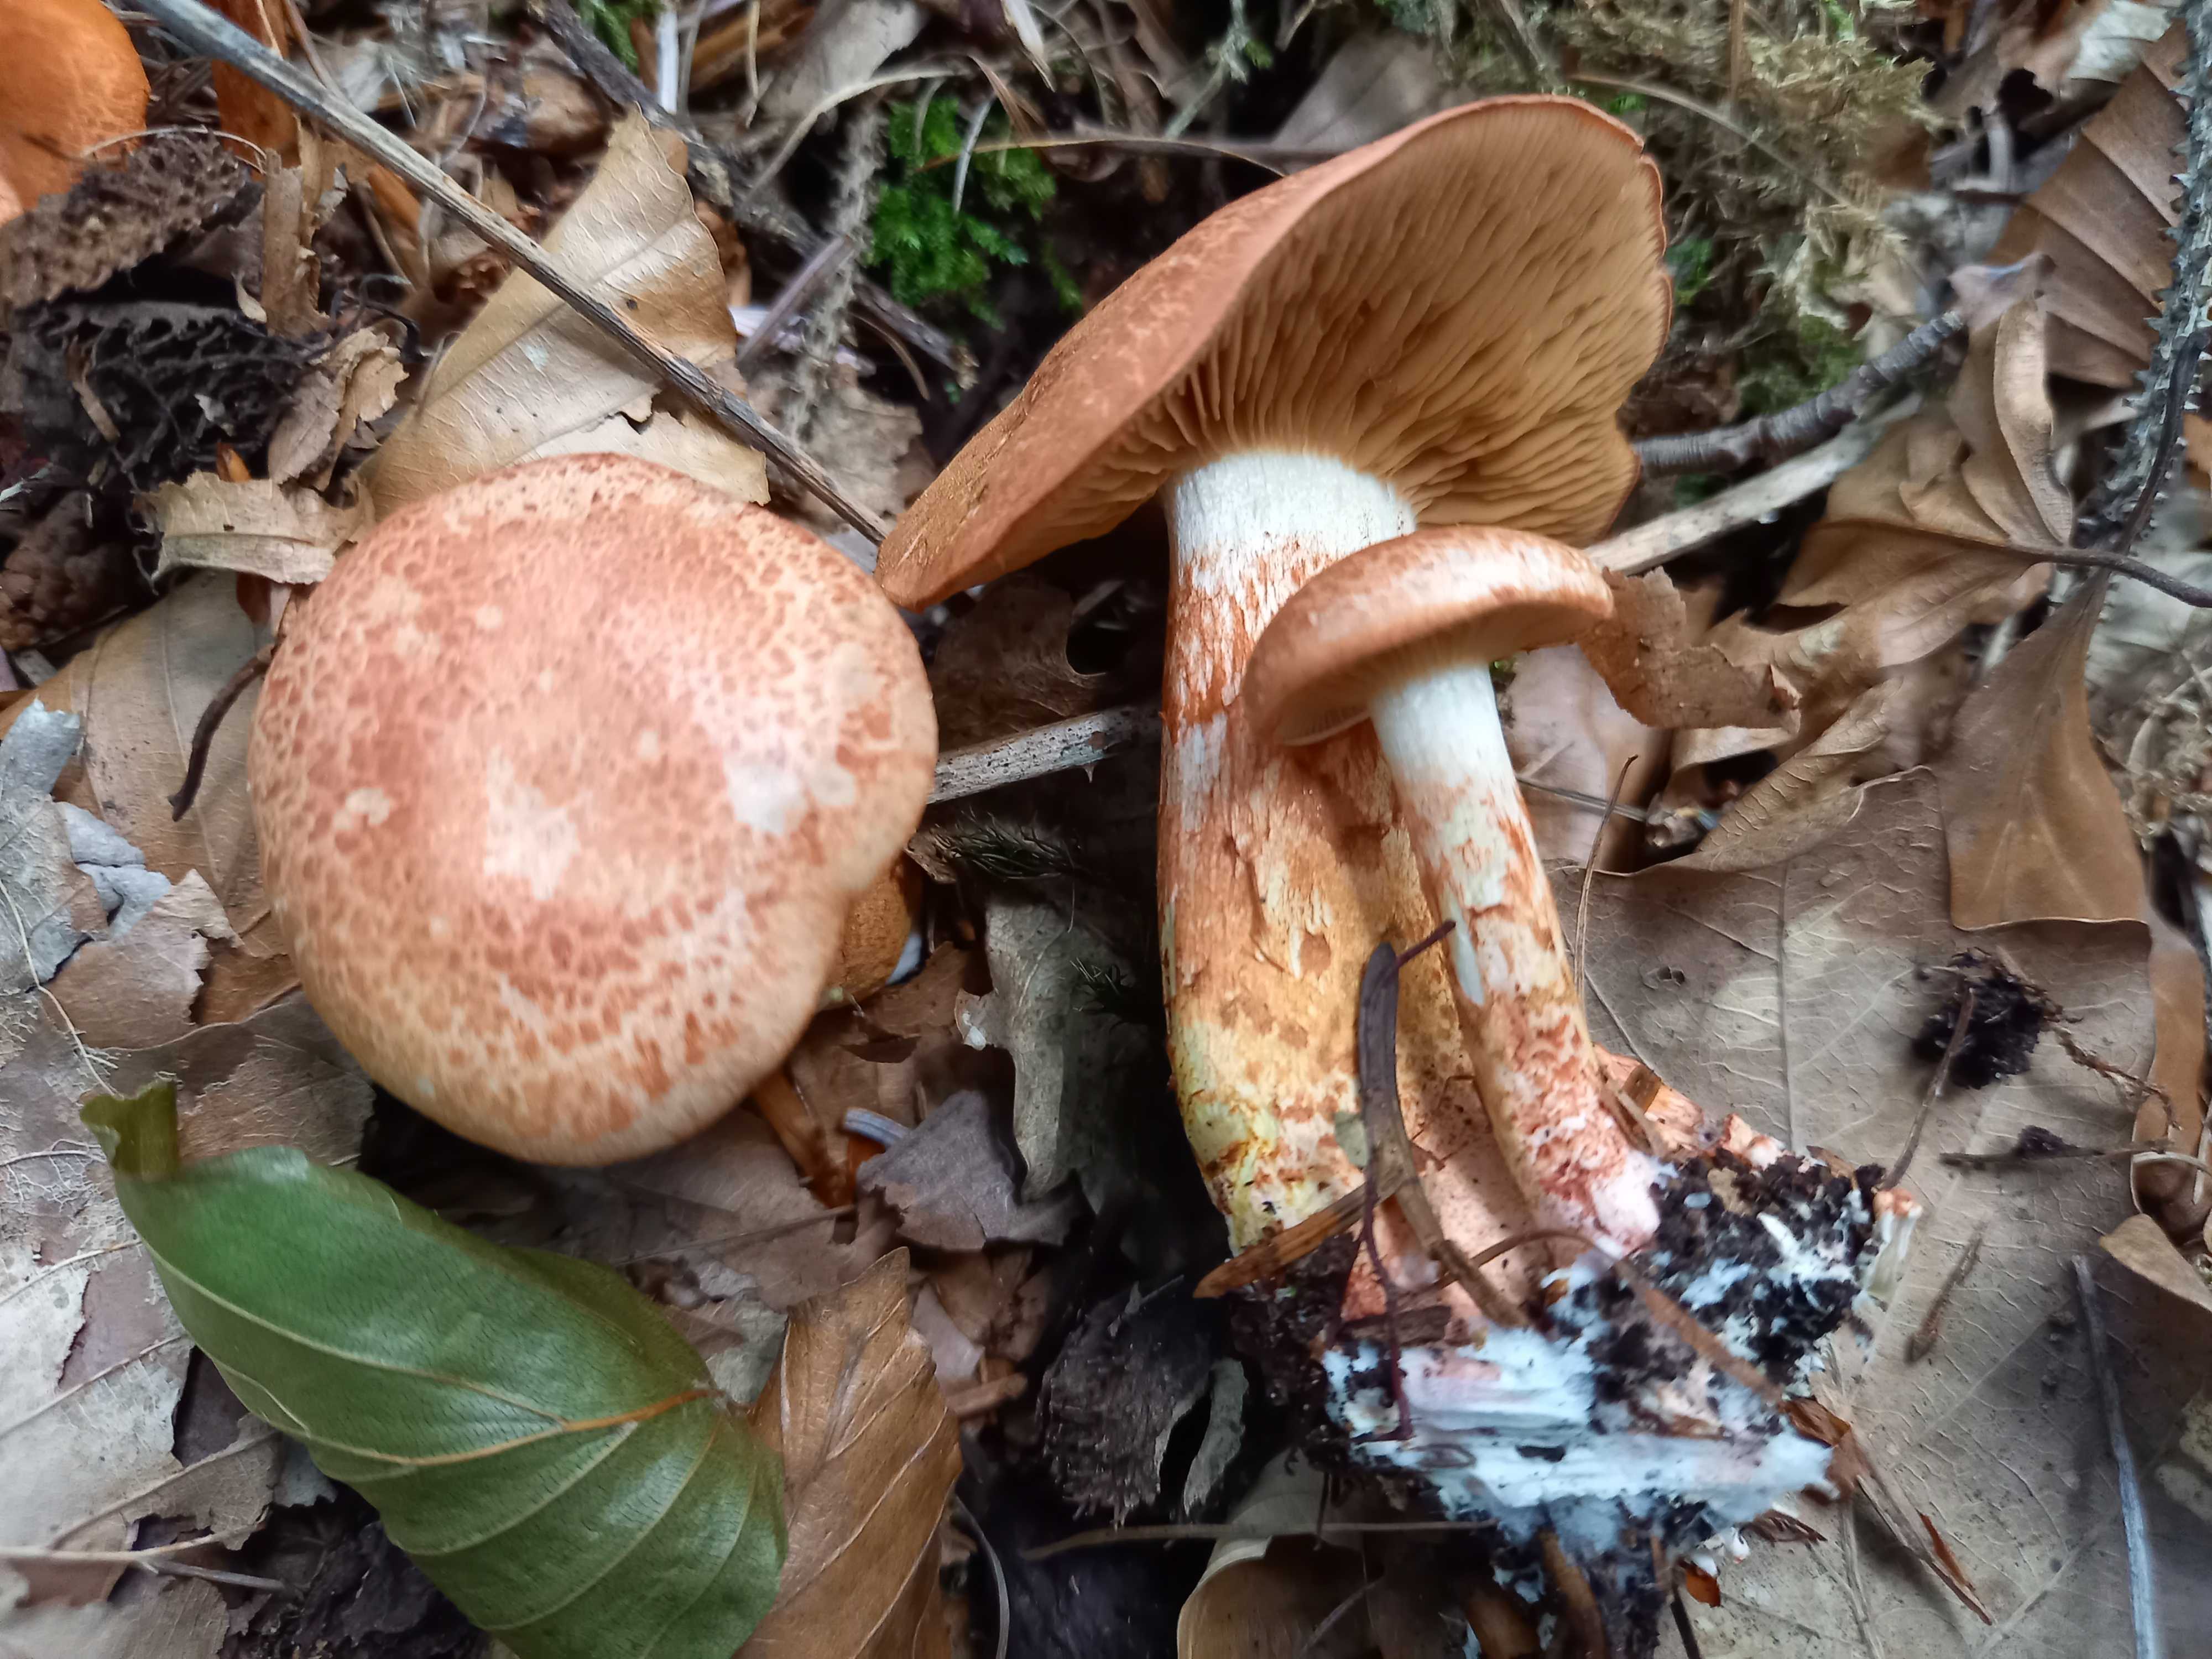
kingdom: Fungi
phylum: Basidiomycota
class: Agaricomycetes
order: Agaricales
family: Cortinariaceae
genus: Cortinarius
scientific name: Cortinarius bolaris
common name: cinnoberskællet slørhat
